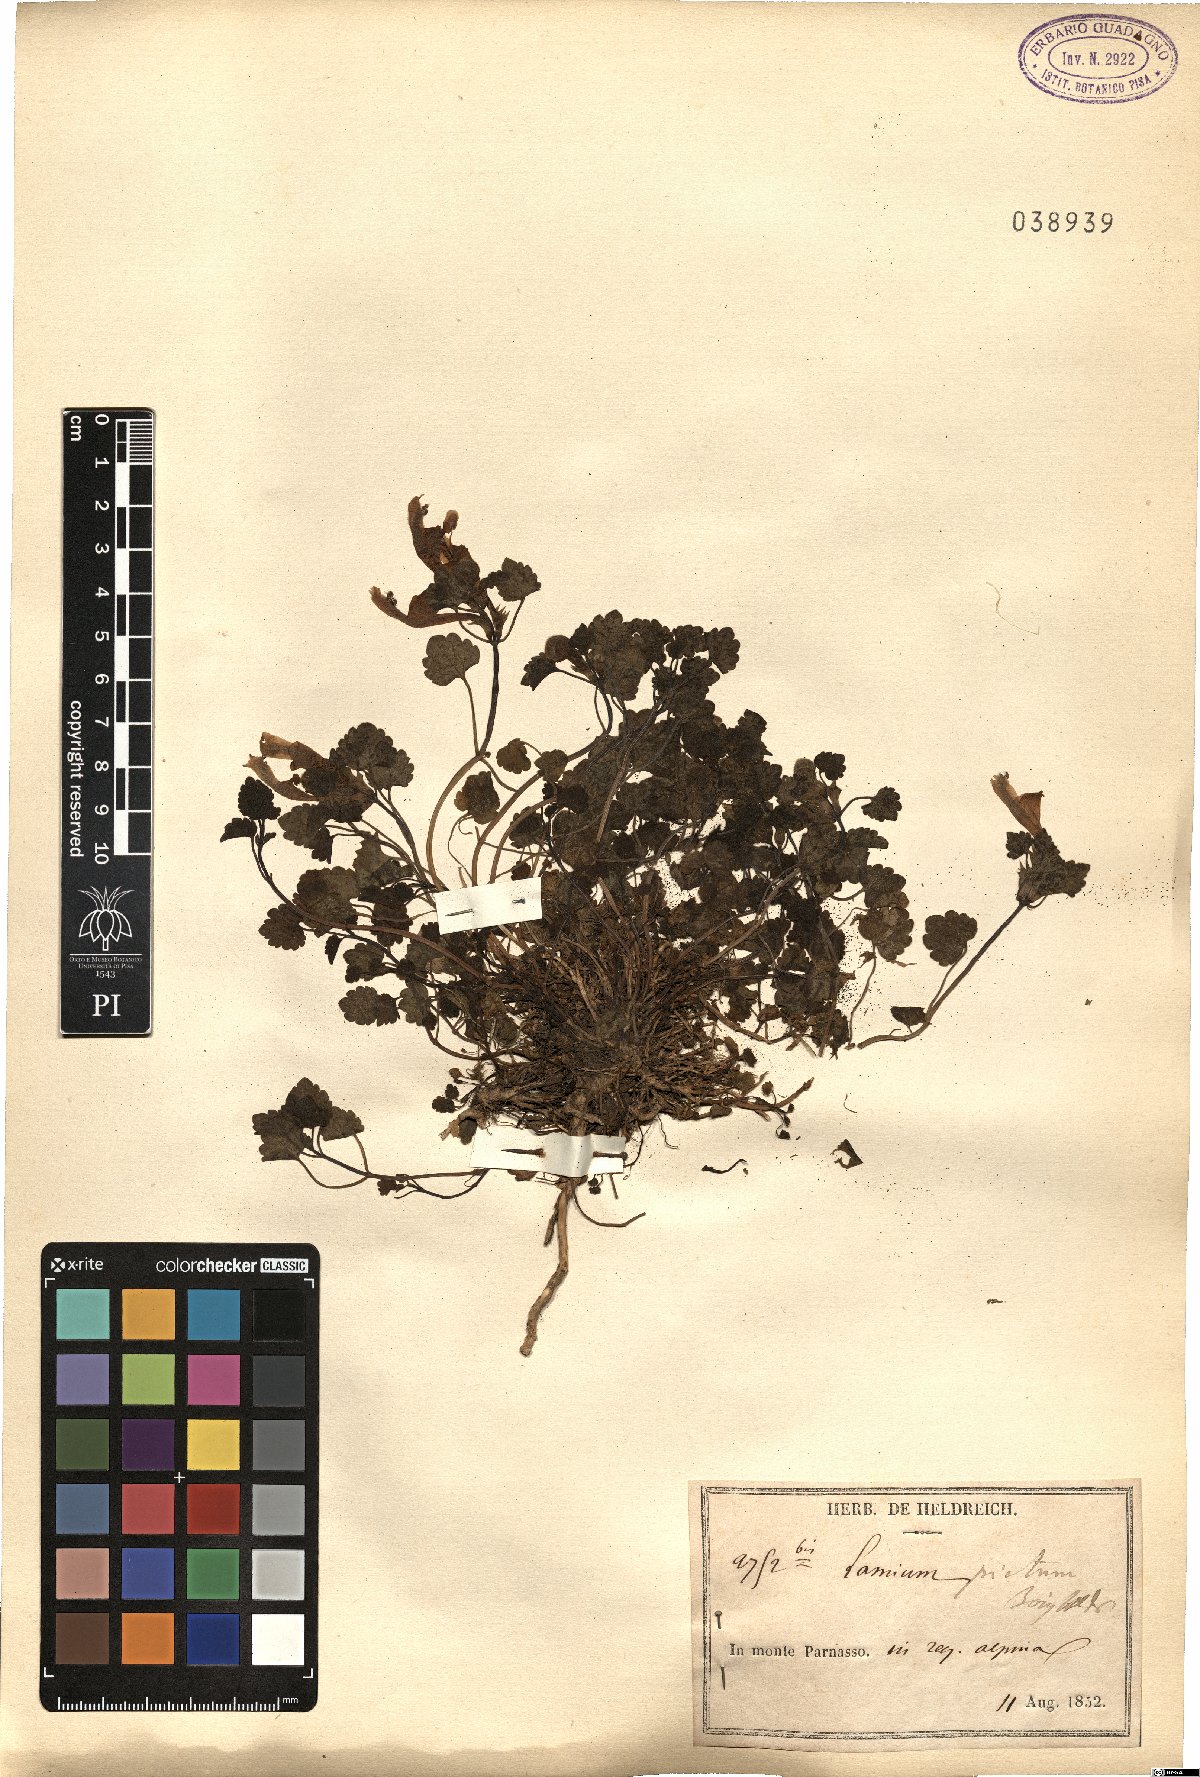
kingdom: Plantae
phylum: Tracheophyta
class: Magnoliopsida
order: Lamiales
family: Lamiaceae
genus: Lamium
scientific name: Lamium garganicum
